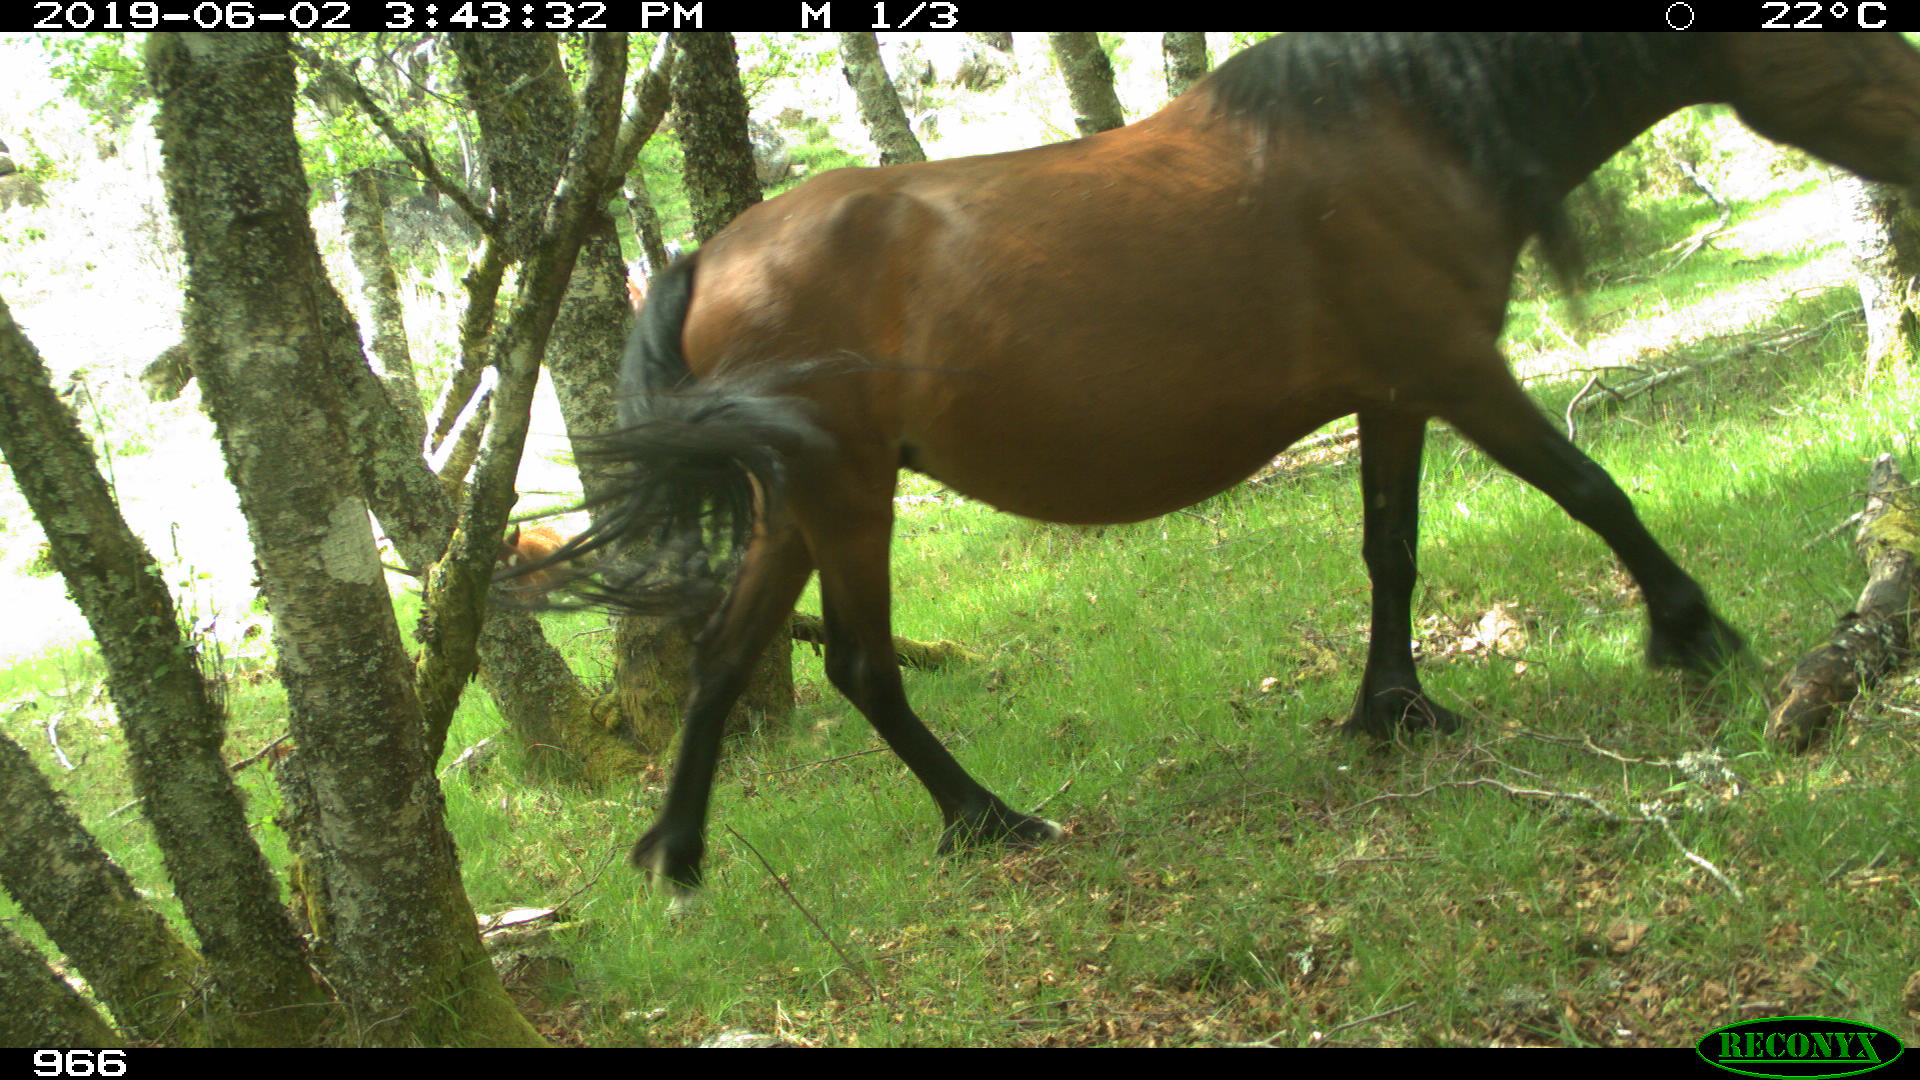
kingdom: Animalia
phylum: Chordata
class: Mammalia
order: Perissodactyla
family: Equidae
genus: Equus
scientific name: Equus caballus
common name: Horse
